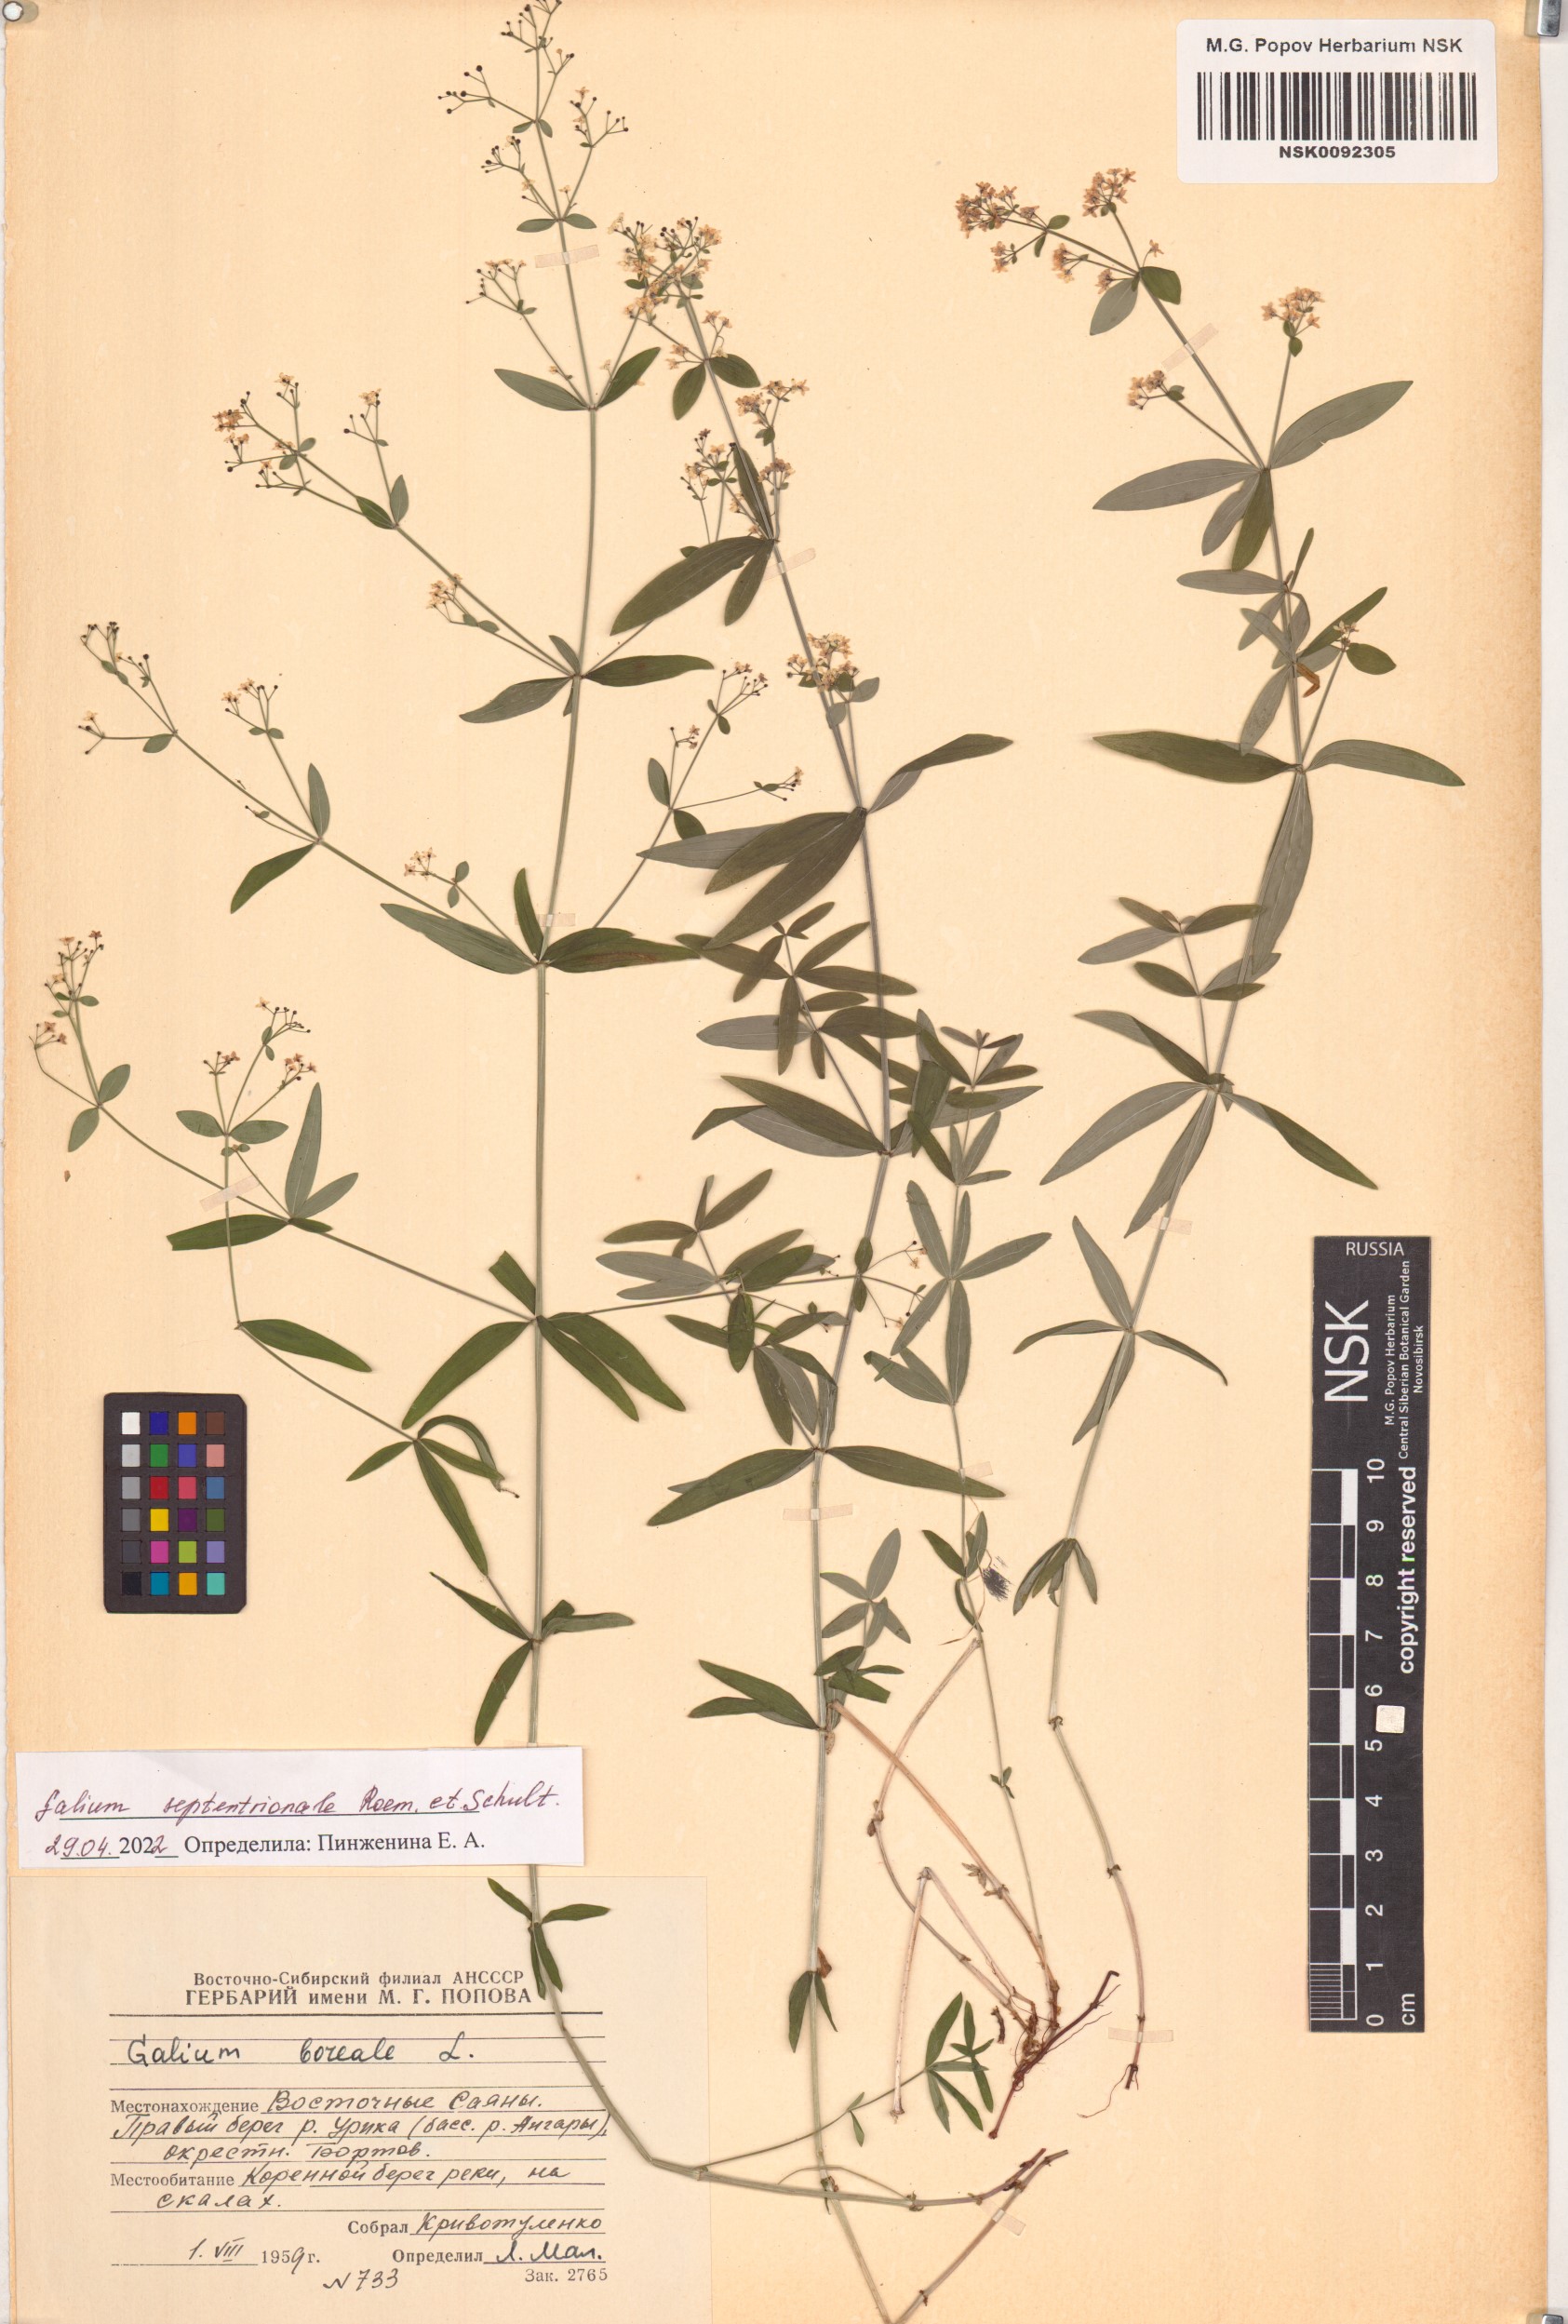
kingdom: Plantae
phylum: Tracheophyta
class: Magnoliopsida
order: Gentianales
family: Rubiaceae
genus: Galium
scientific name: Galium boreale
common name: Northern bedstraw
